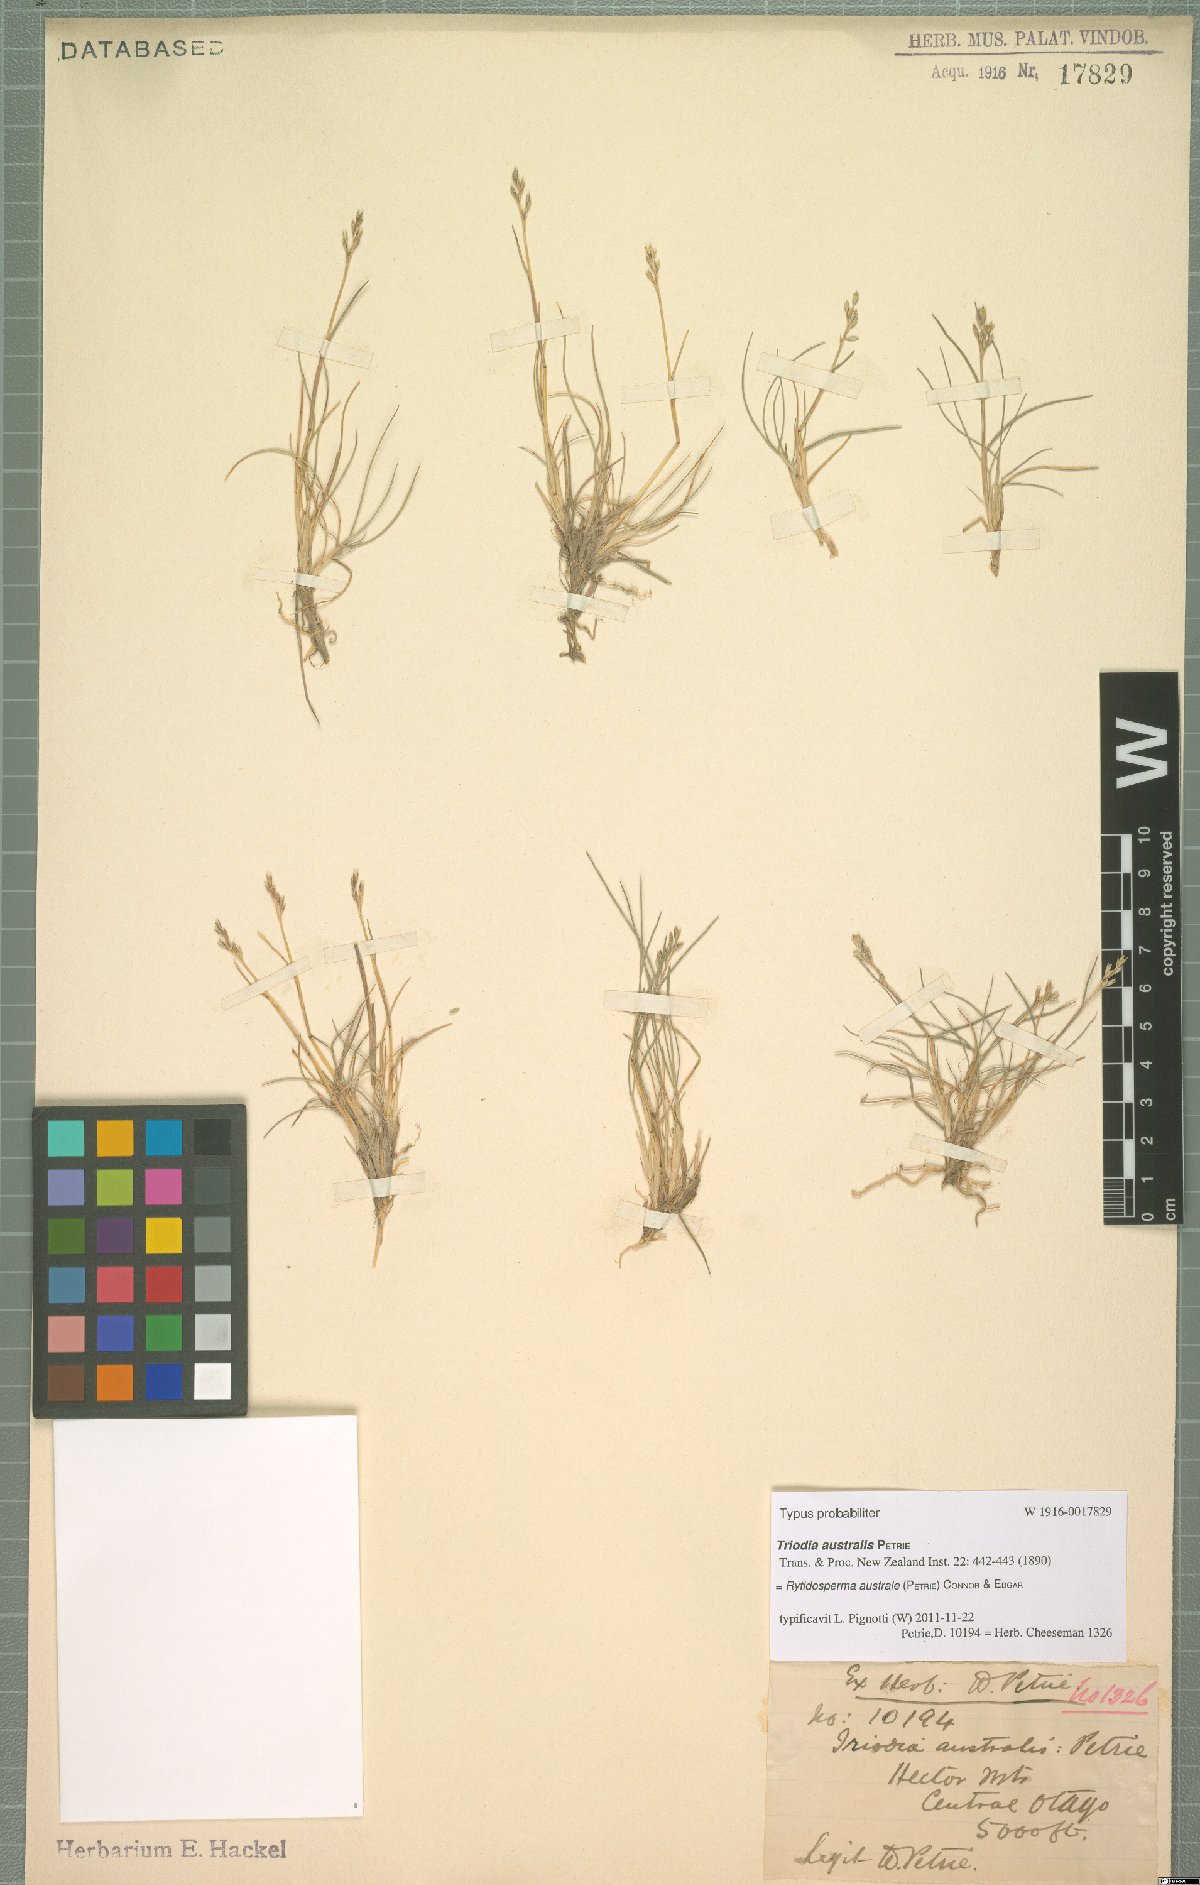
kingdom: Plantae
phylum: Tracheophyta
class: Liliopsida
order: Poales
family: Poaceae
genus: Rytidosperma
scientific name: Rytidosperma australe
